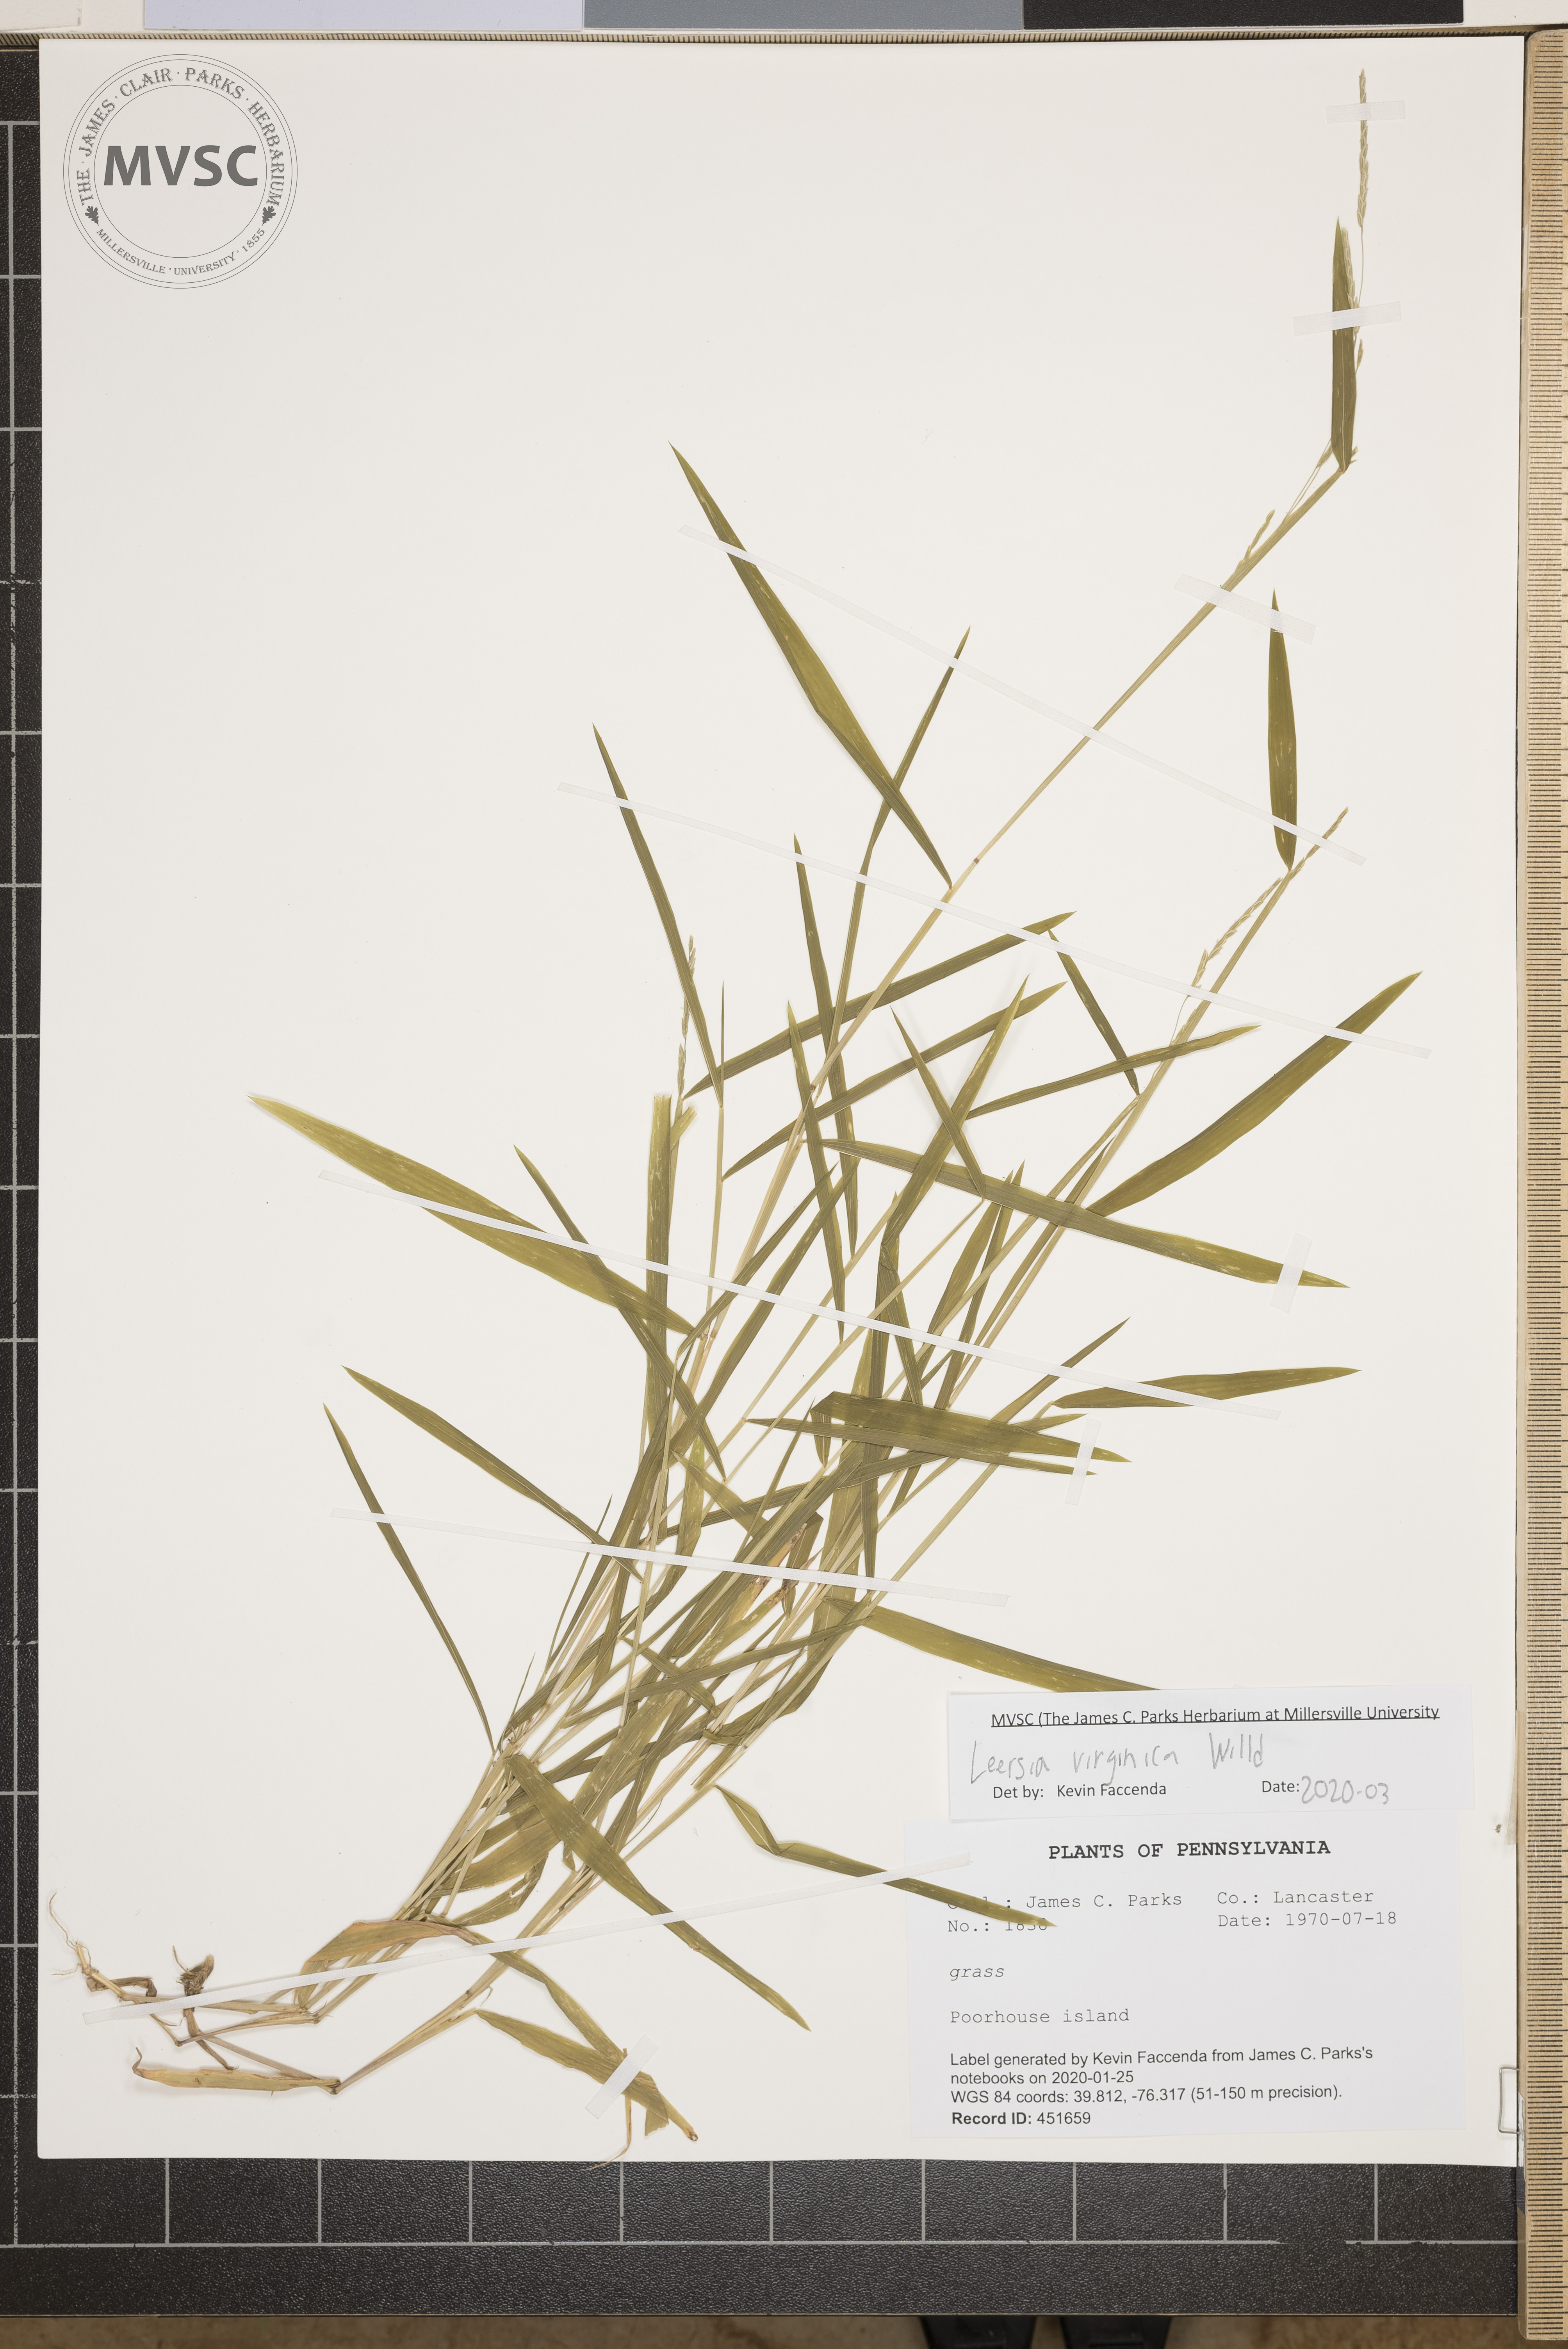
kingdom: Plantae
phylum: Tracheophyta
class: Liliopsida
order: Poales
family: Poaceae
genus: Leersia
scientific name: Leersia virginica
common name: White cutgrass
